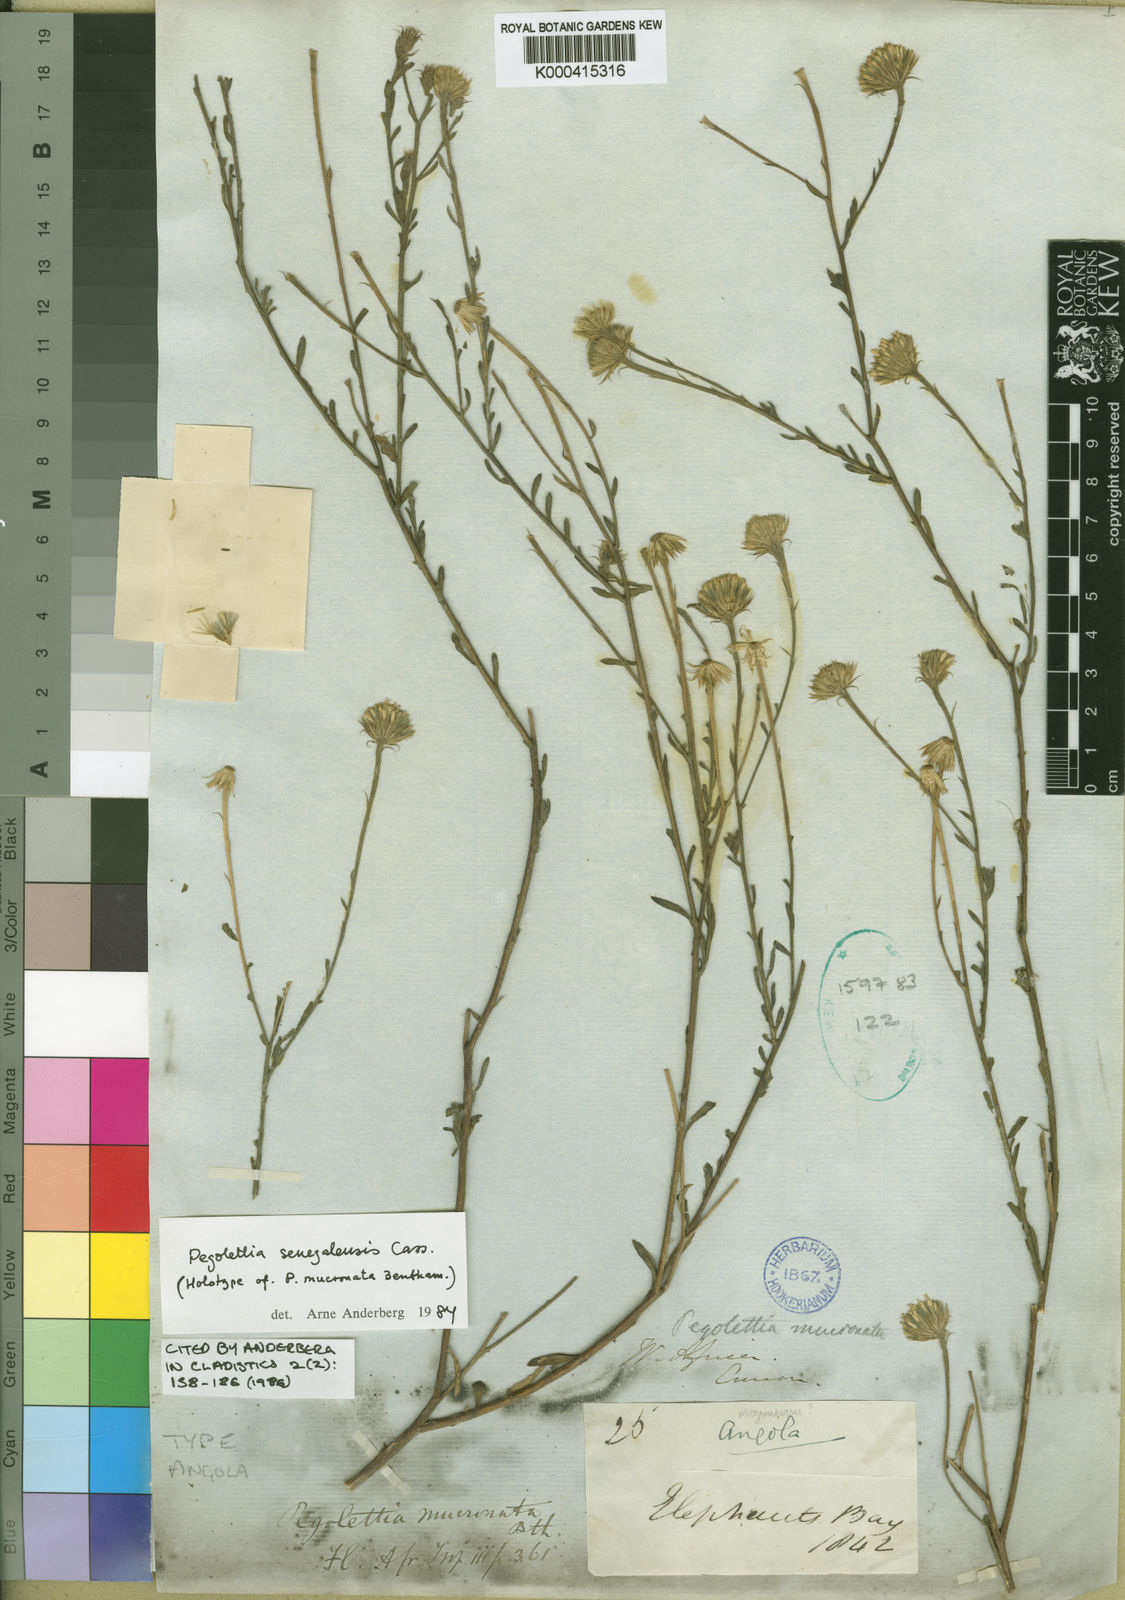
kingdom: Plantae
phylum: Tracheophyta
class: Magnoliopsida
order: Asterales
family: Asteraceae
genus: Pegolettia
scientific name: Pegolettia senegalensis
